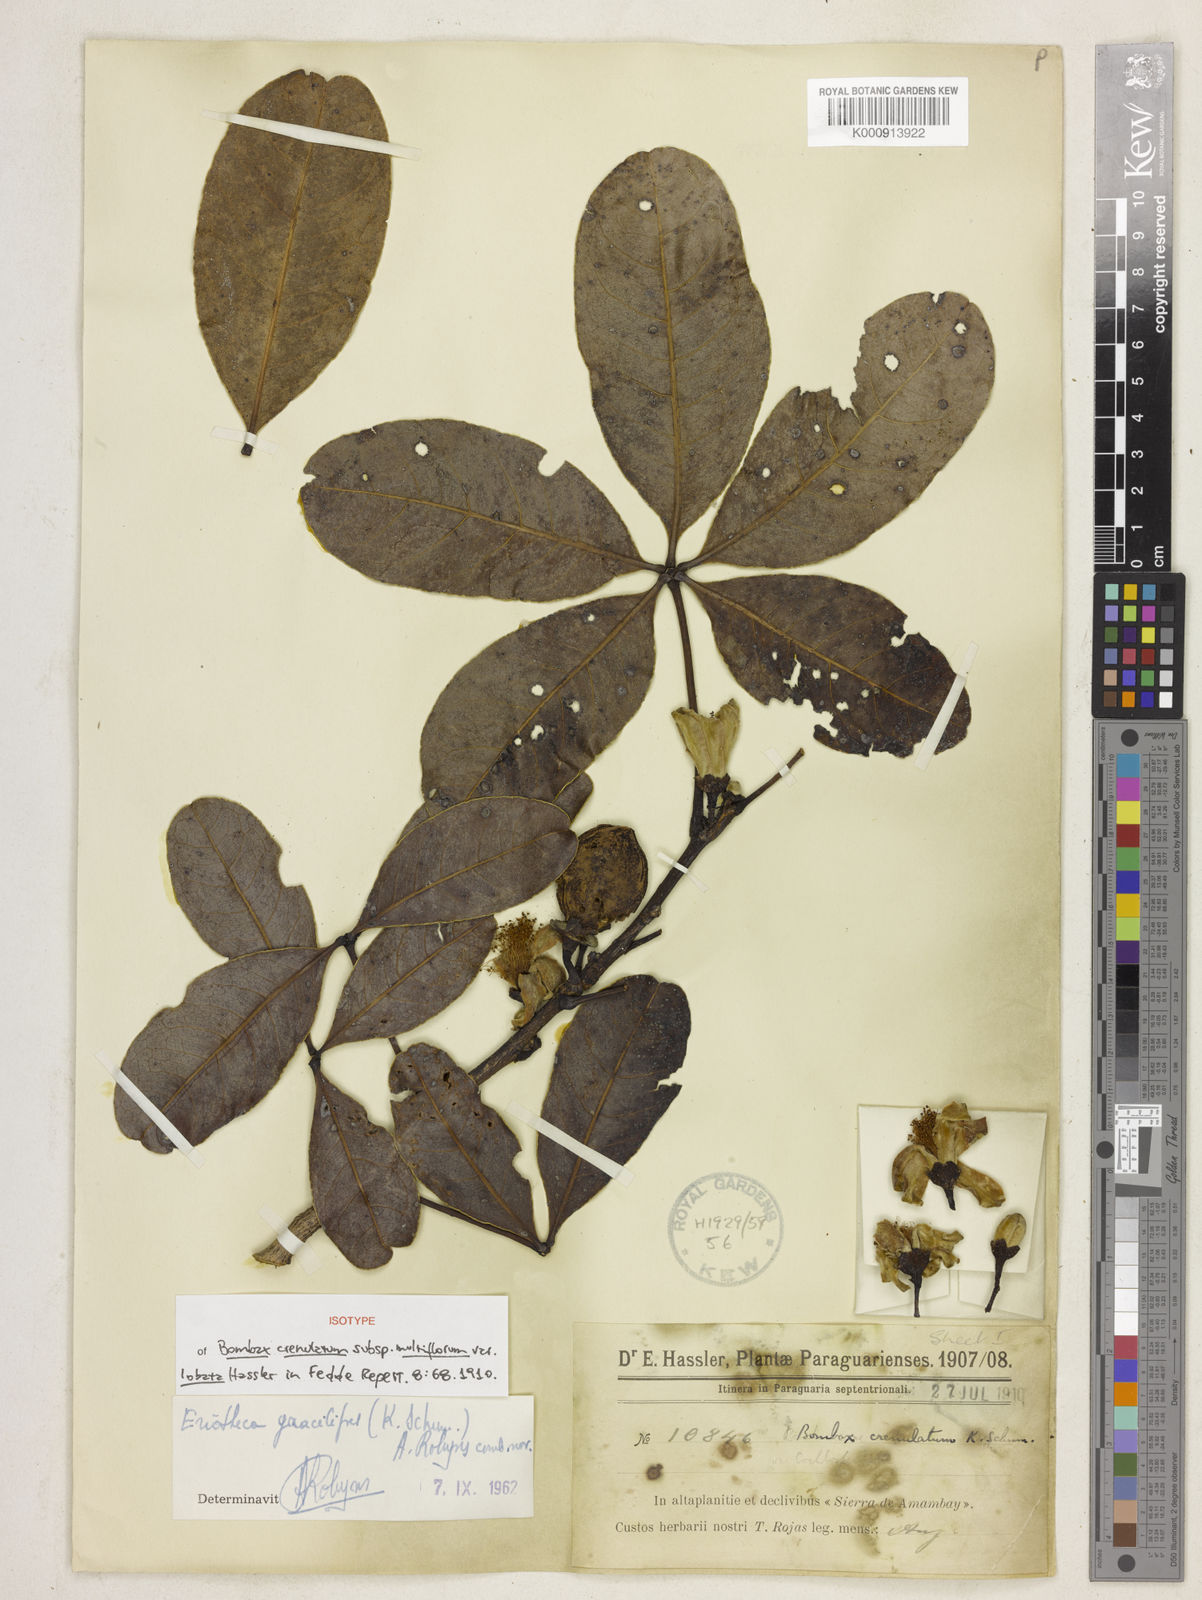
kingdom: Plantae
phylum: Tracheophyta
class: Magnoliopsida
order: Malvales
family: Malvaceae
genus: Eriotheca
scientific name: Eriotheca gracilipes
